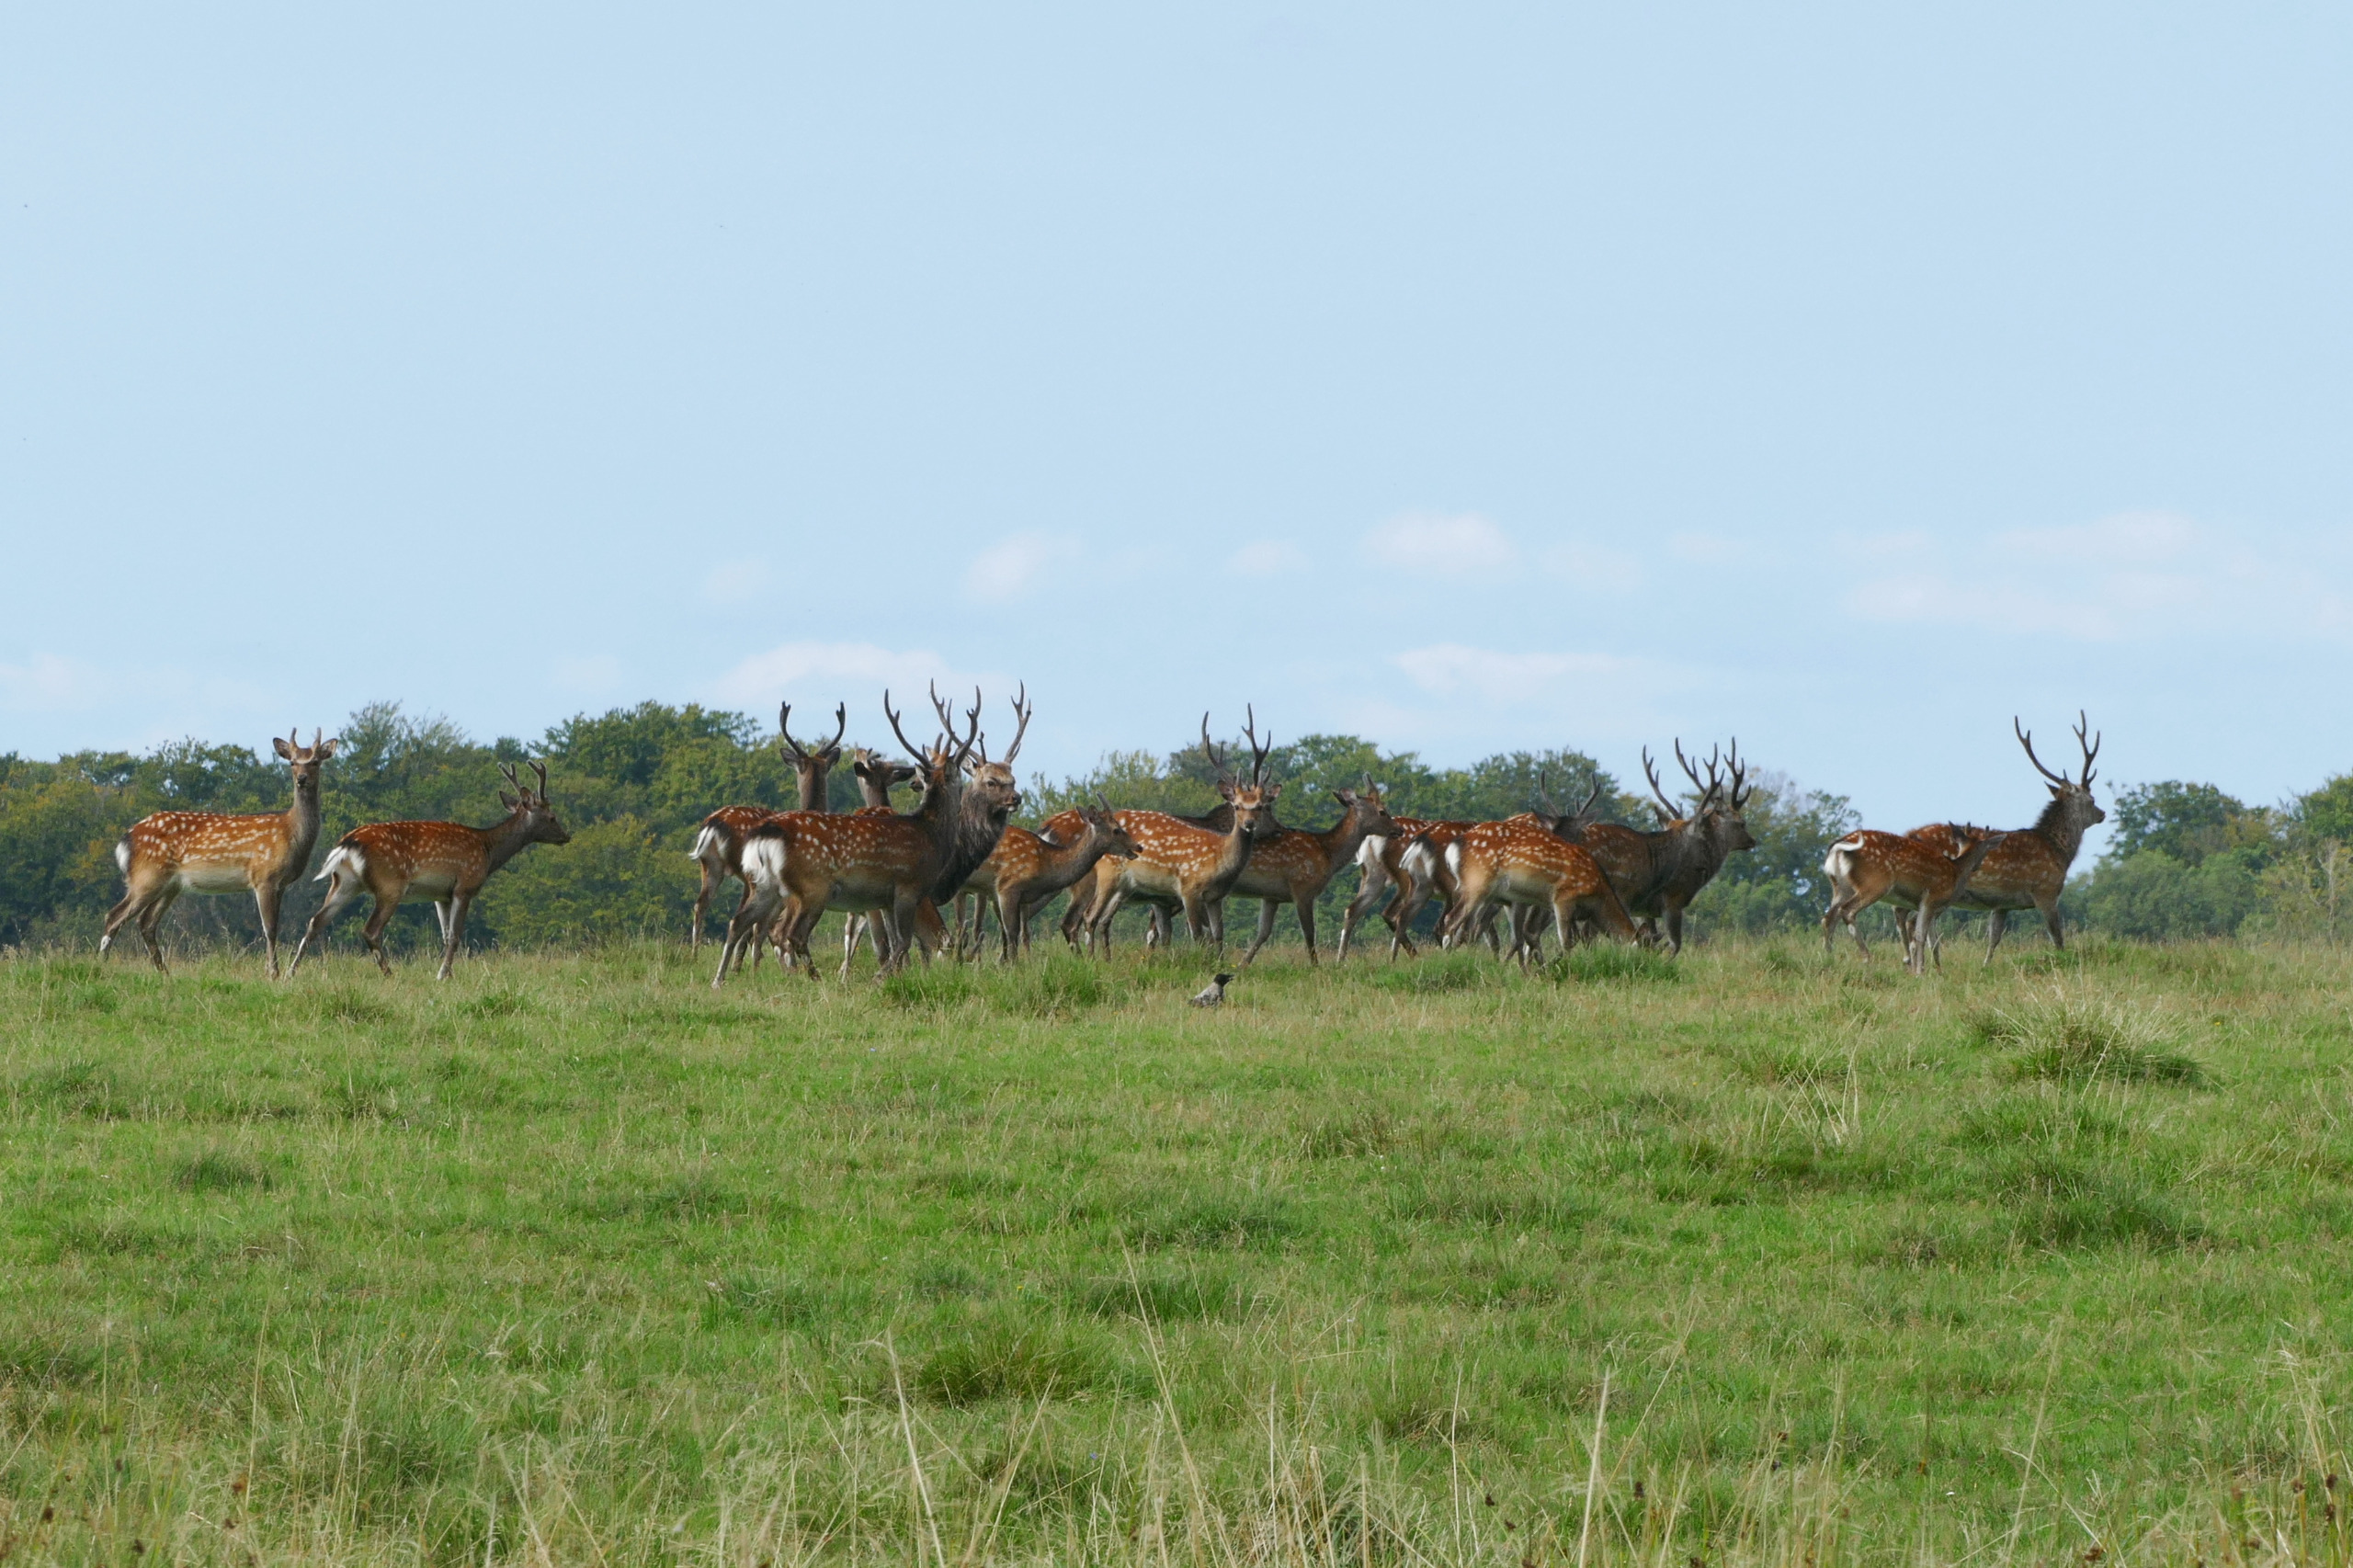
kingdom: Animalia
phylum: Chordata
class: Mammalia
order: Artiodactyla
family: Cervidae
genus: Cervus
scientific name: Cervus nippon
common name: Sika
